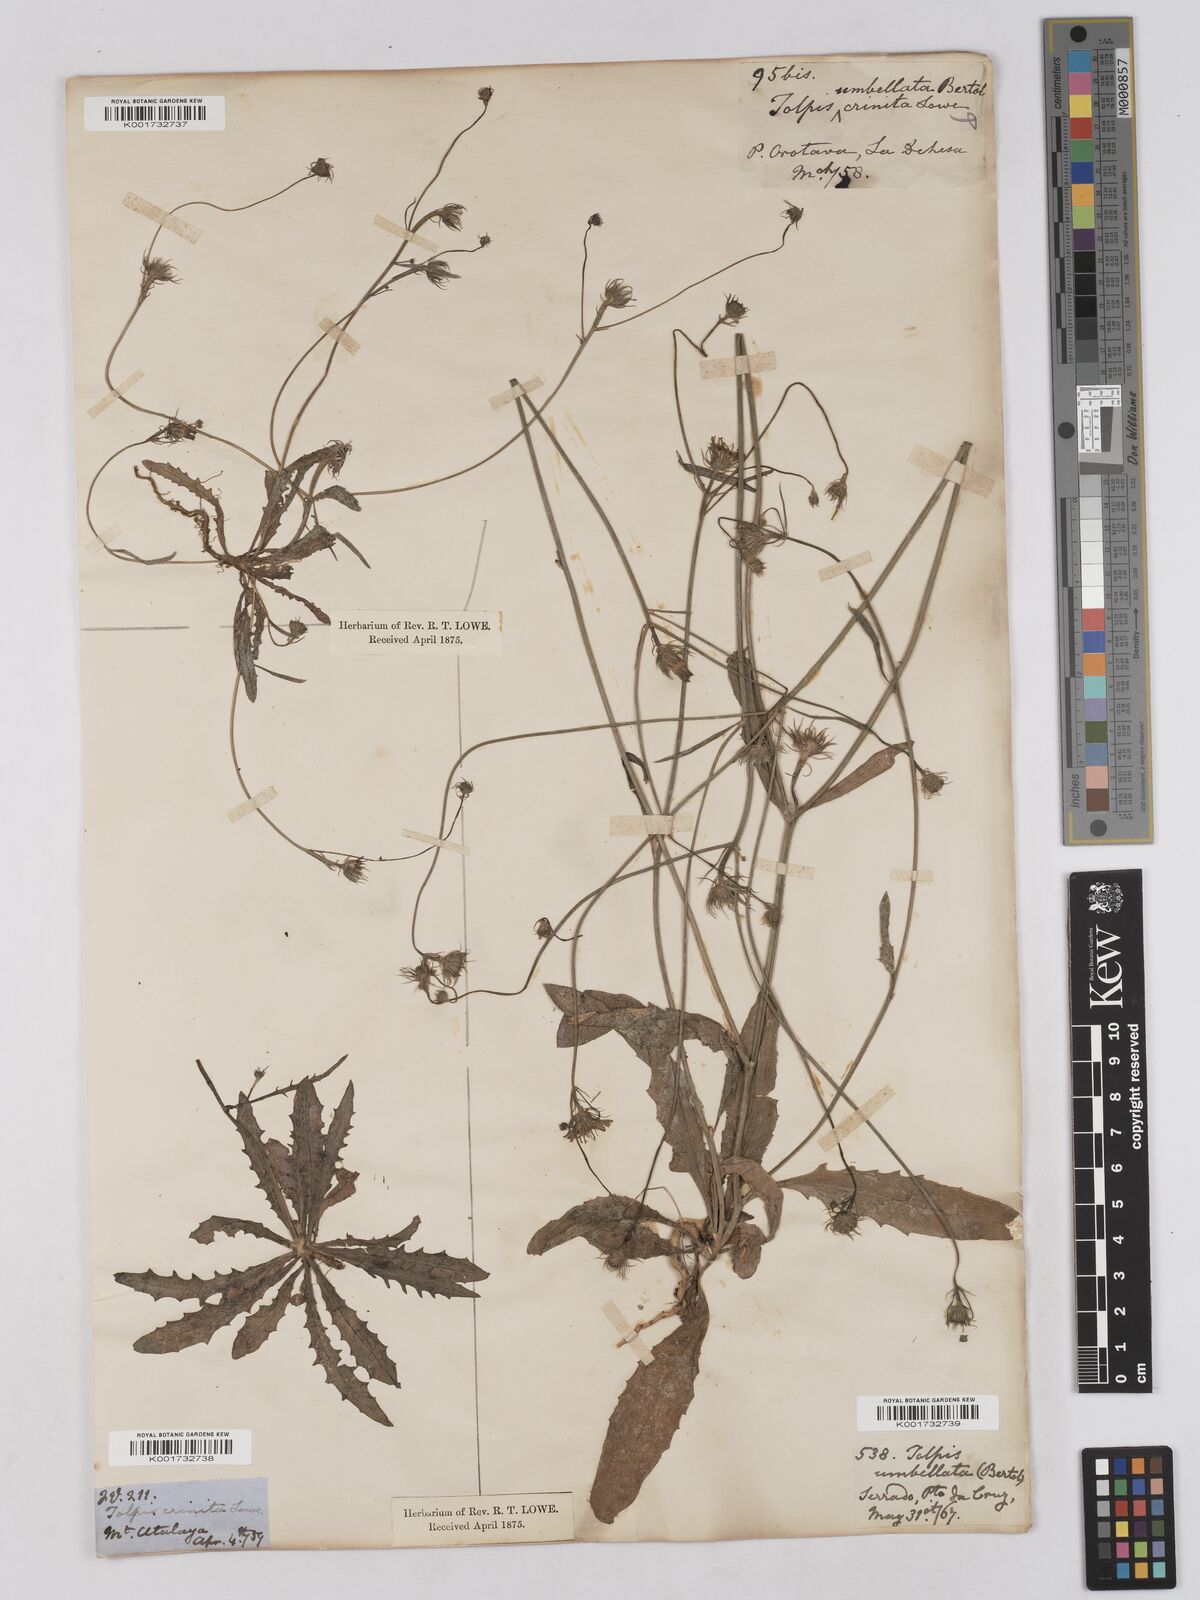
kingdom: Plantae
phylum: Tracheophyta
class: Magnoliopsida
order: Asterales
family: Asteraceae
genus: Tolpis
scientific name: Tolpis umbellata
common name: Yellow hawkweed
